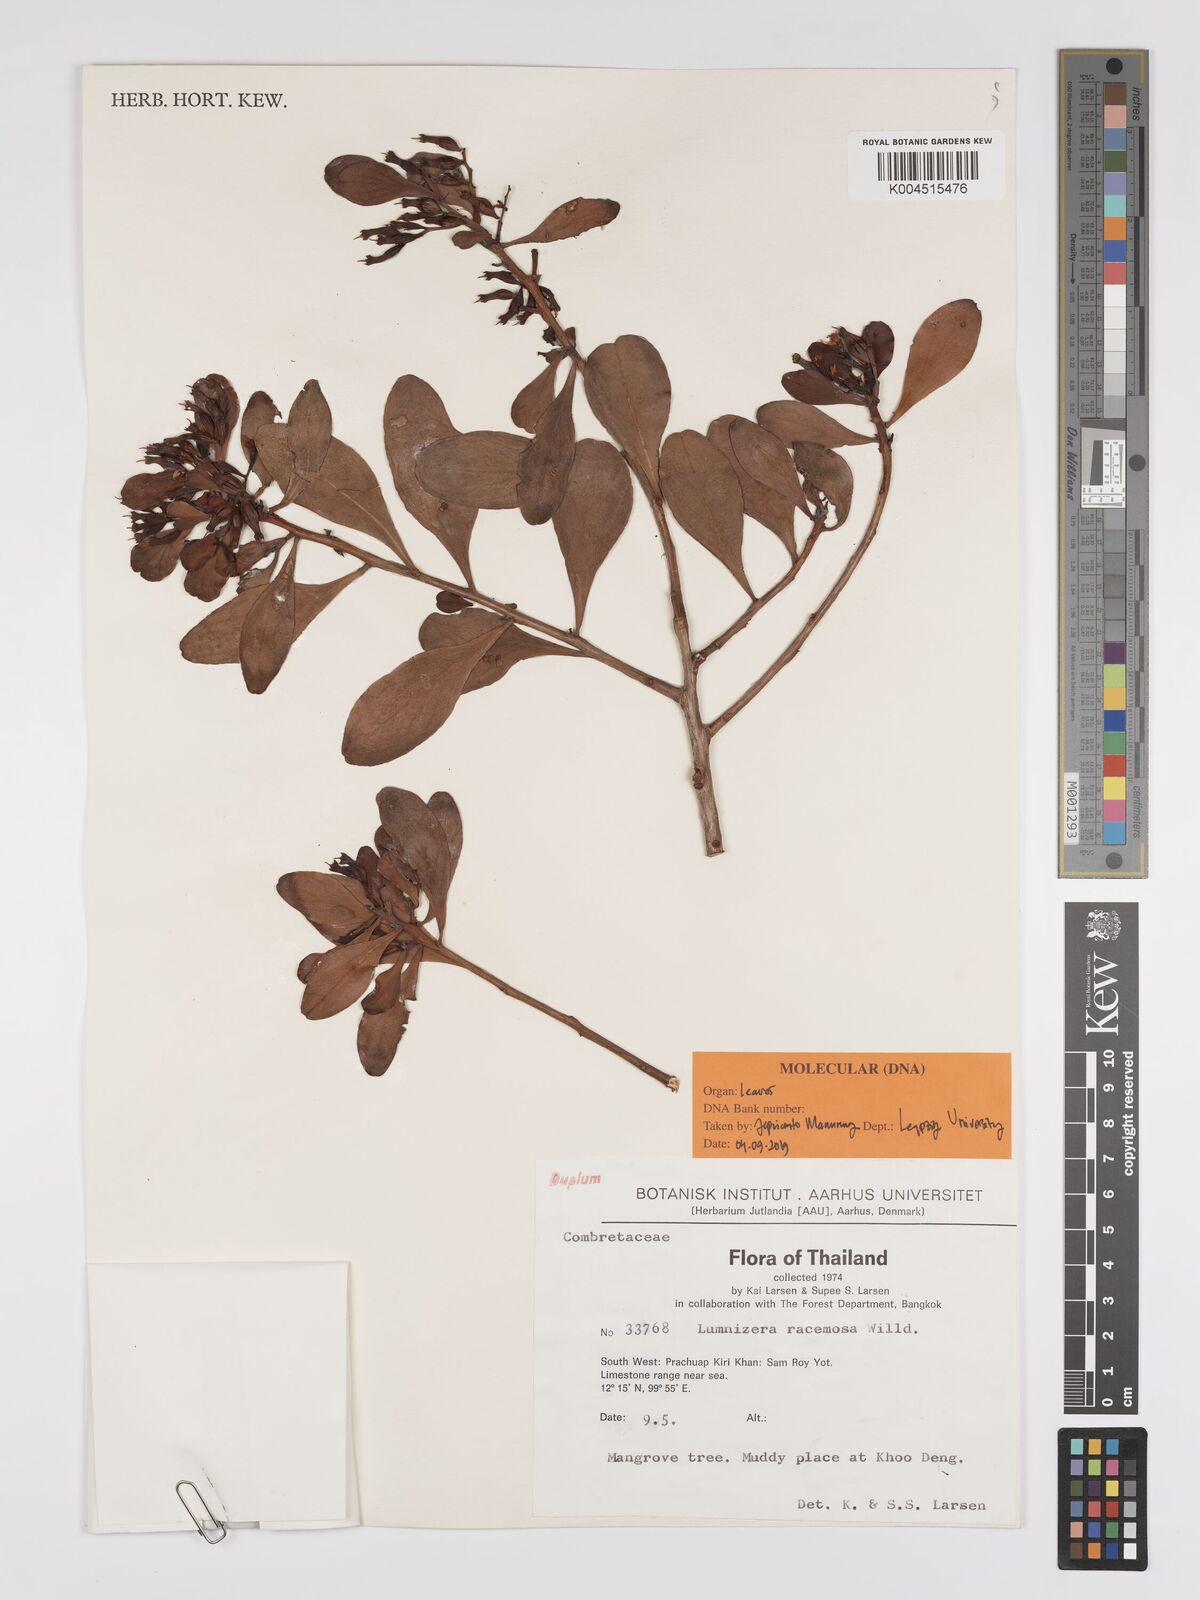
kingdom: Plantae
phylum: Tracheophyta
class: Magnoliopsida
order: Myrtales
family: Combretaceae
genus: Lumnitzera
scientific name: Lumnitzera racemosa
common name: White-flowered black mangrove
